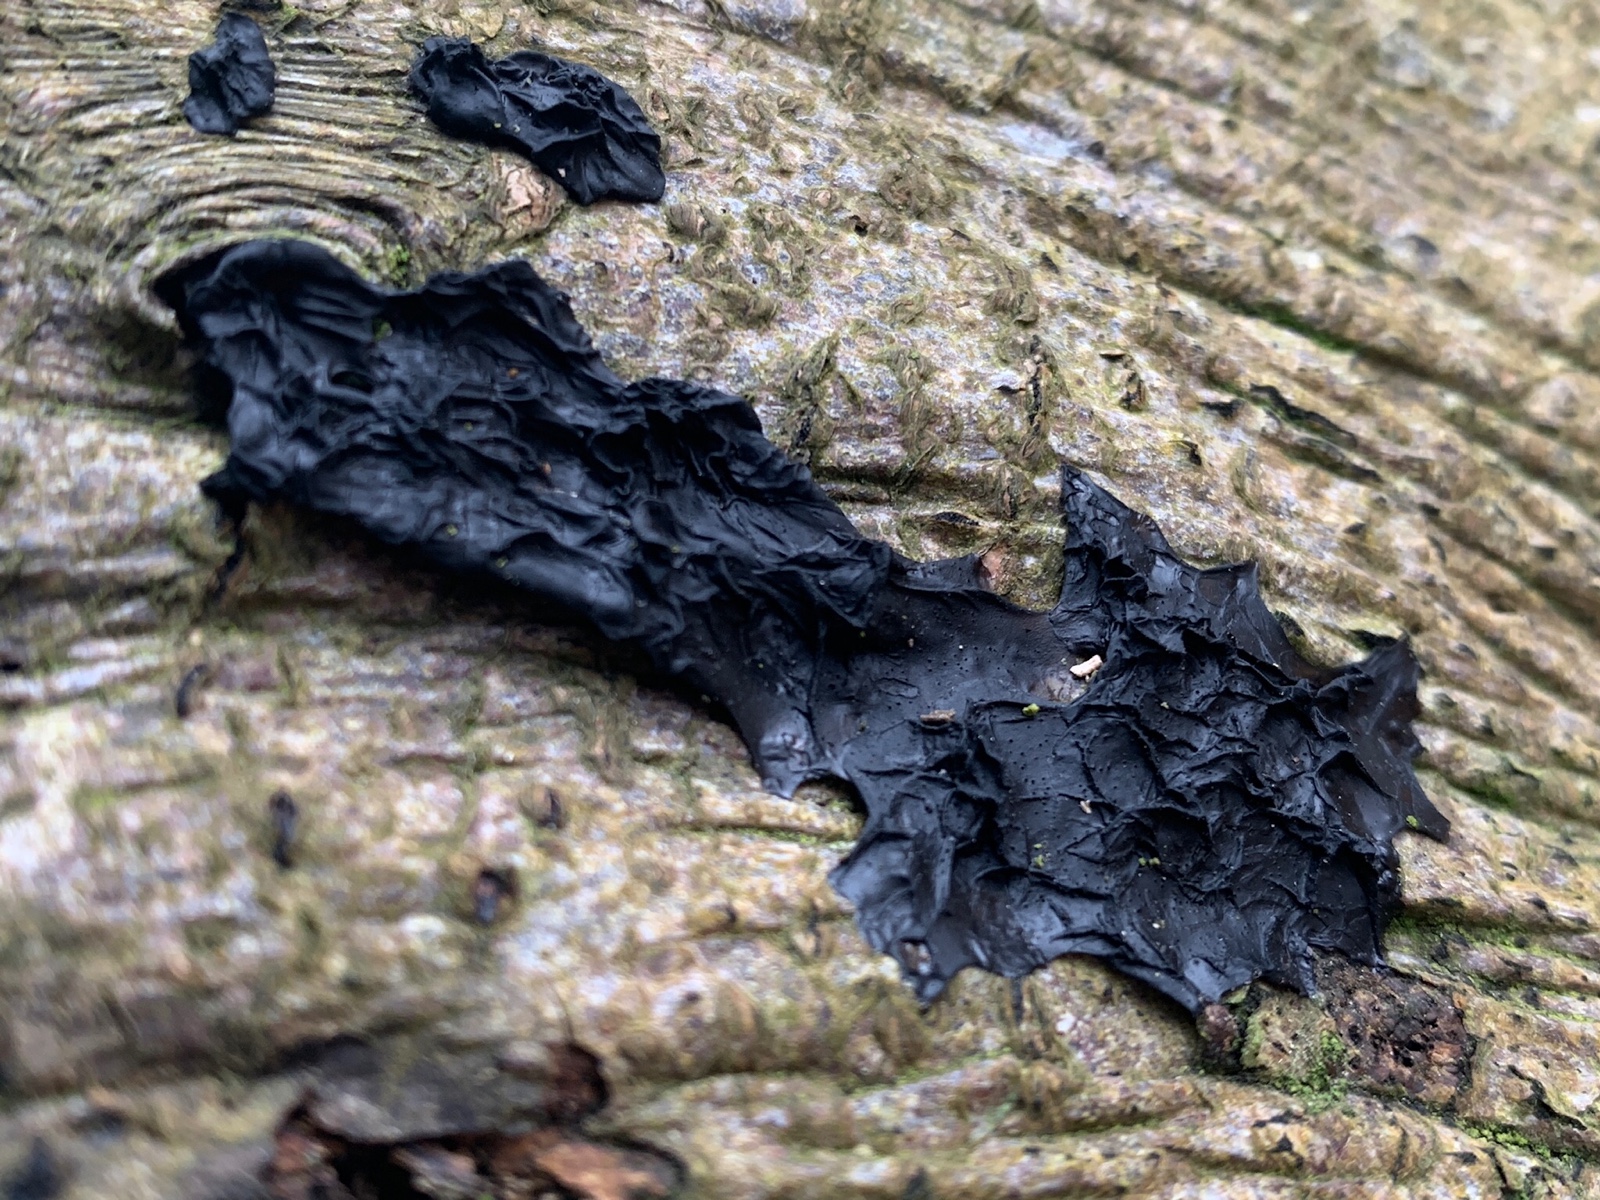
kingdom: Fungi
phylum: Basidiomycota
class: Agaricomycetes
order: Auriculariales
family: Auriculariaceae
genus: Exidia
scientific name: Exidia nigricans
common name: almindelig bævretop
